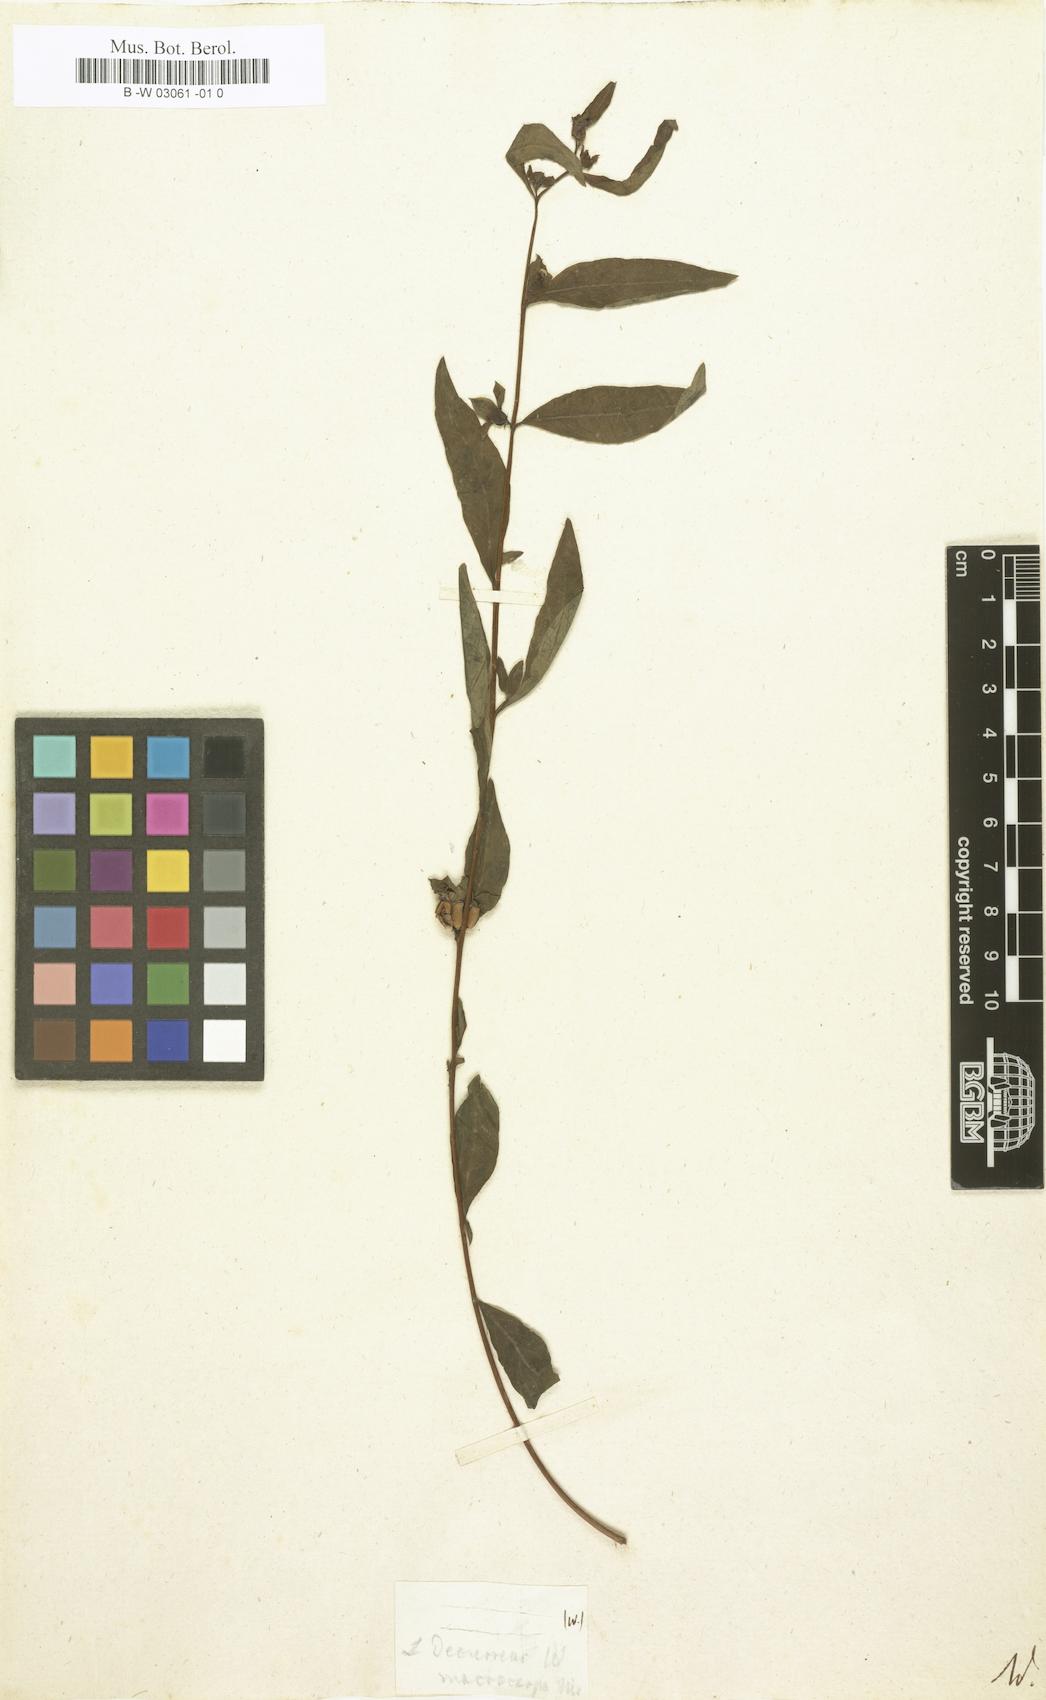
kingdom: Plantae
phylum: Tracheophyta
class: Magnoliopsida
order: Myrtales
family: Onagraceae
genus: Ludwigia
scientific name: Ludwigia decurrens
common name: Winged water-primrose
